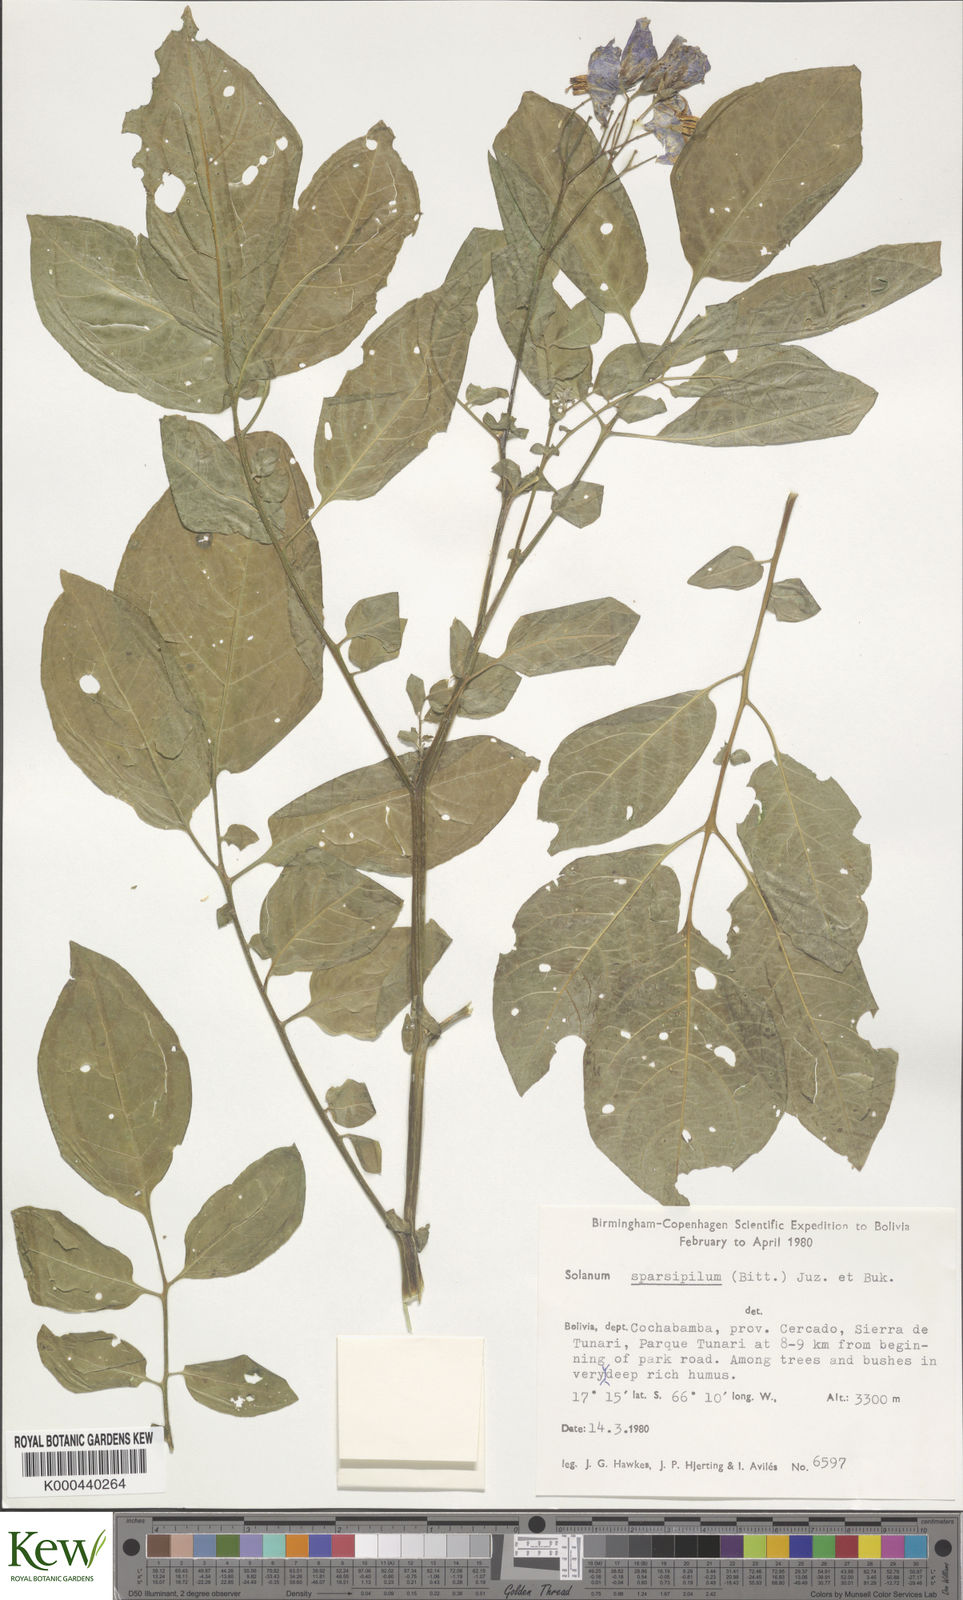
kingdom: Plantae
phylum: Tracheophyta
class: Magnoliopsida
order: Solanales
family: Solanaceae
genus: Solanum
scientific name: Solanum brevicaule
